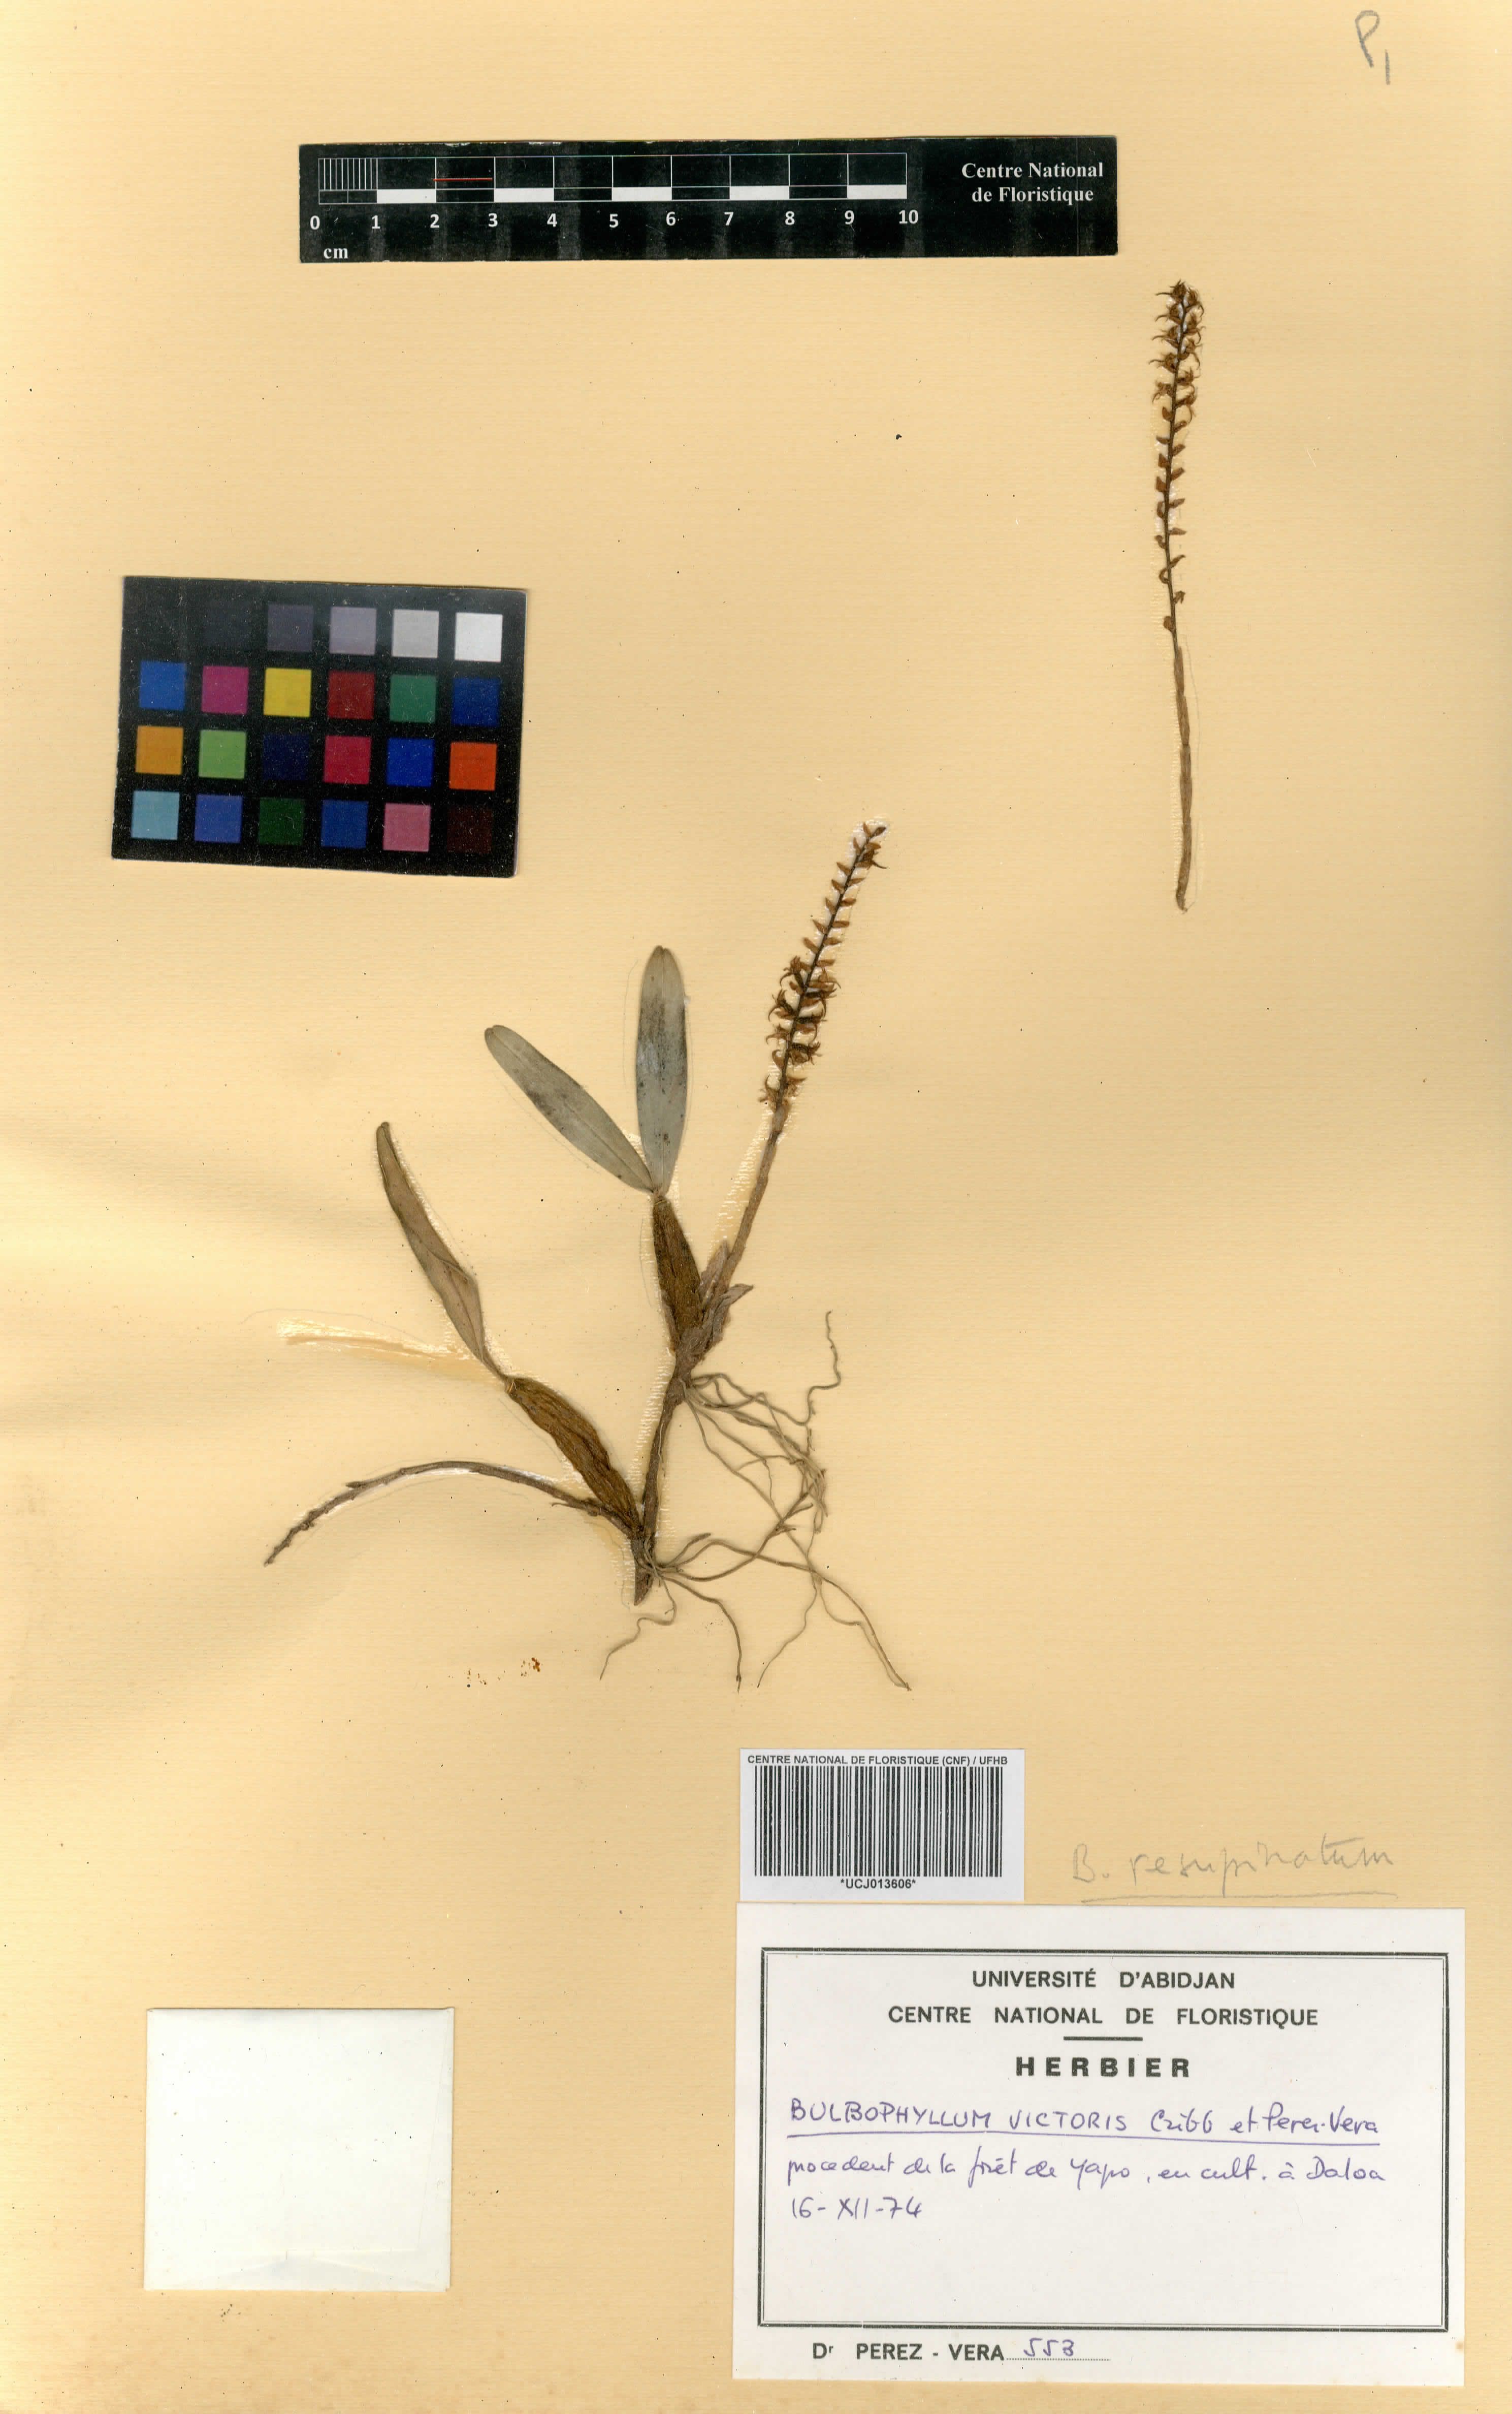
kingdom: Plantae
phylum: Tracheophyta
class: Liliopsida
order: Asparagales
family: Orchidaceae
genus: Bulbophyllum
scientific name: Bulbophyllum resupinatum
